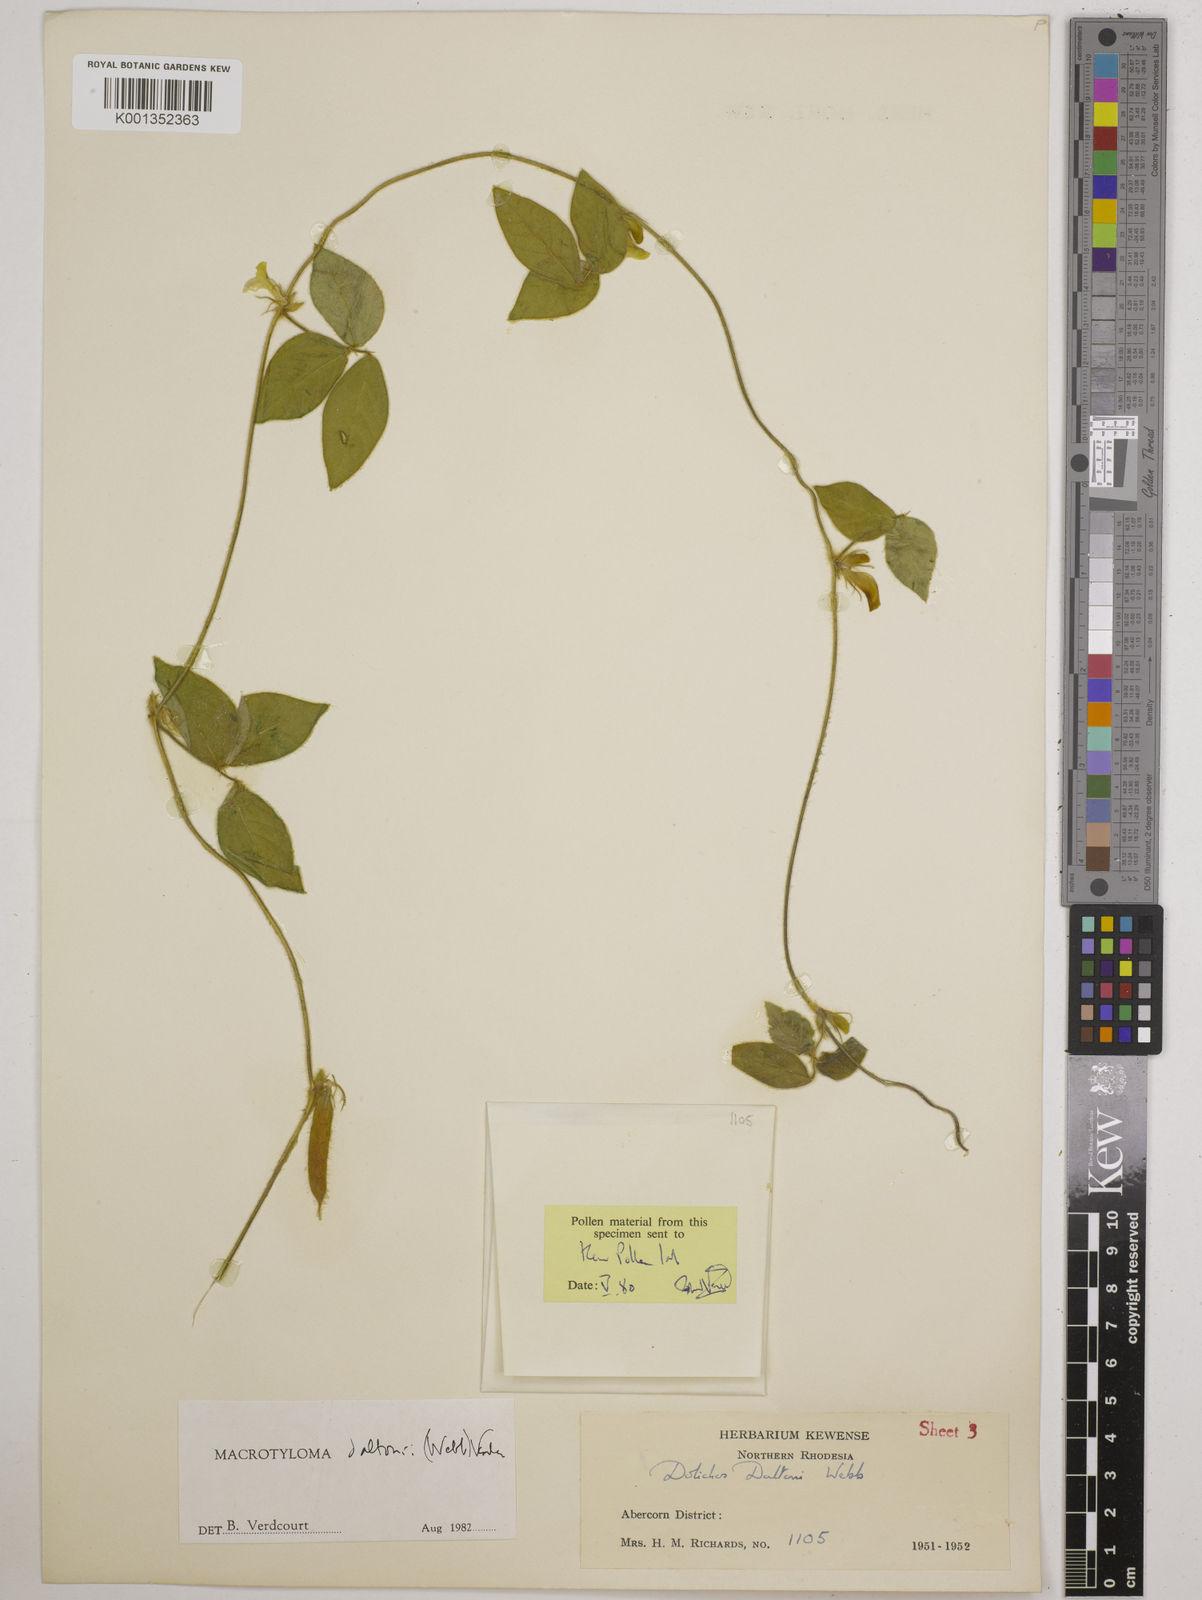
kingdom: Plantae
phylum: Tracheophyta
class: Magnoliopsida
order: Fabales
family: Fabaceae
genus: Macrotyloma
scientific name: Macrotyloma daltonii
